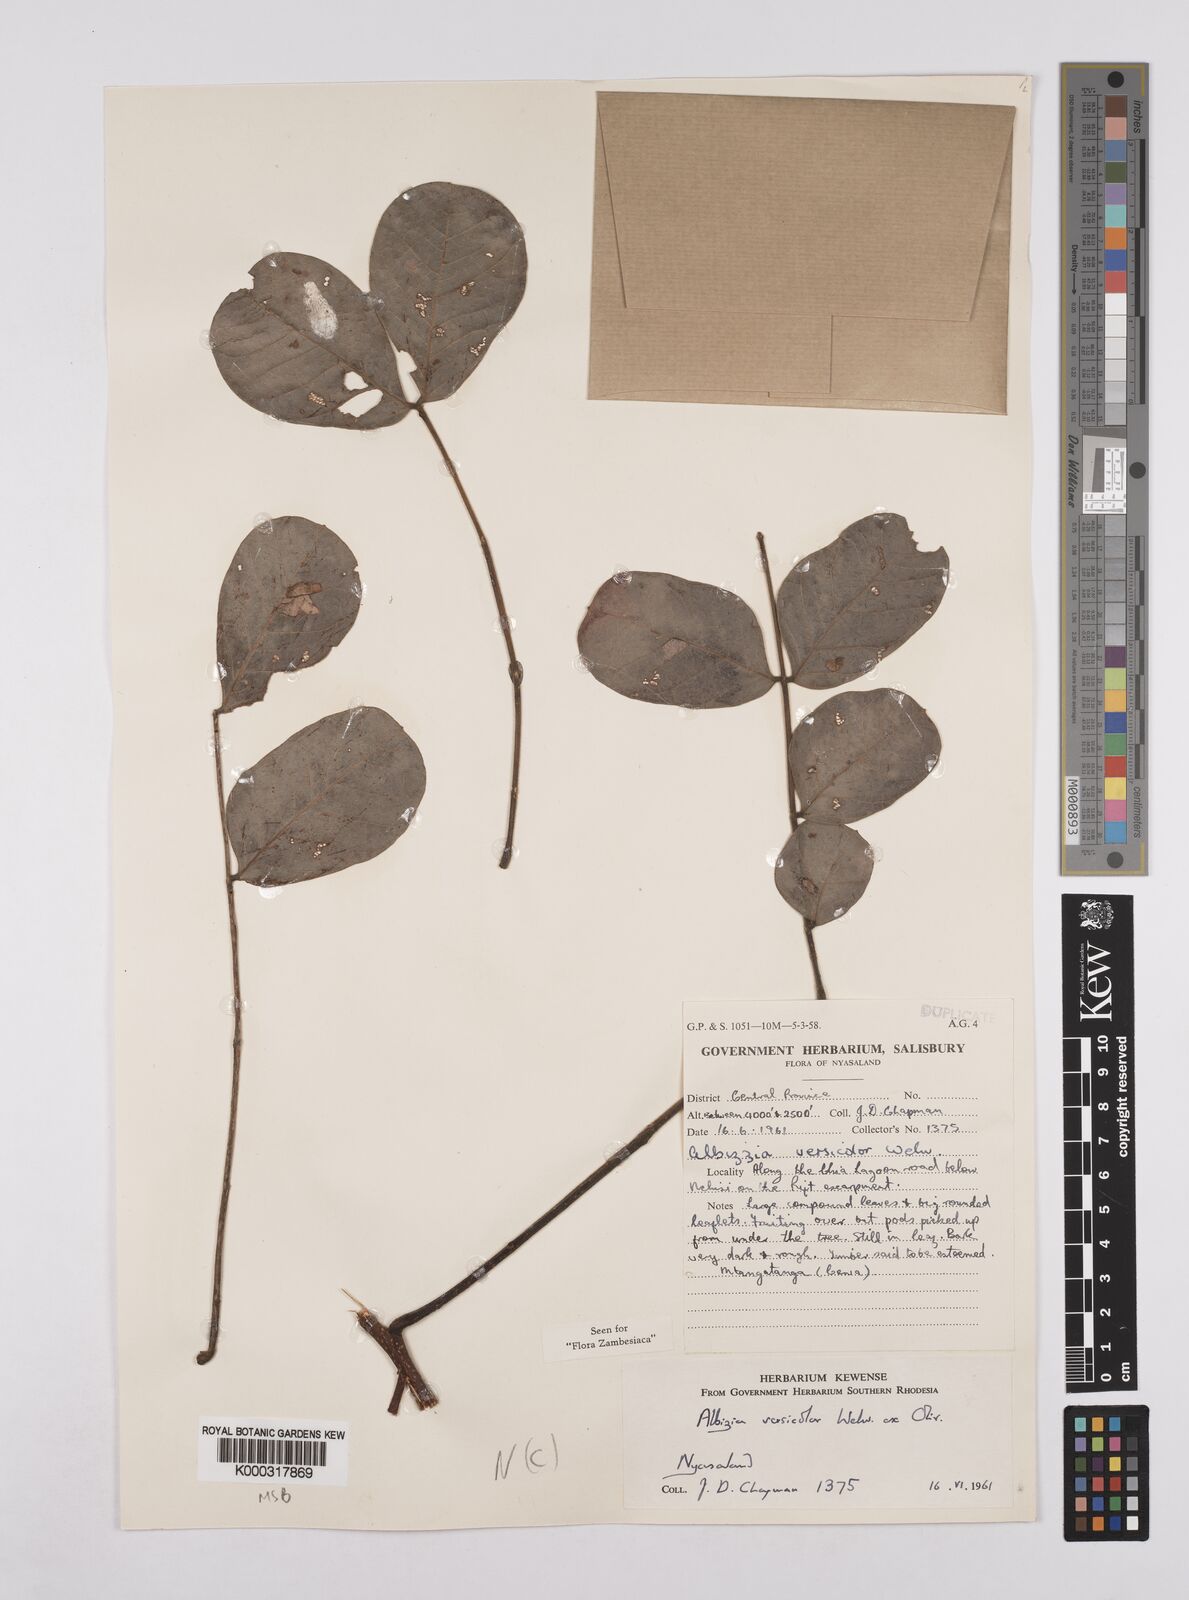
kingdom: Plantae
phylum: Tracheophyta
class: Magnoliopsida
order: Fabales
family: Fabaceae
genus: Albizia
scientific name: Albizia versicolor
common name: Poisonpod
